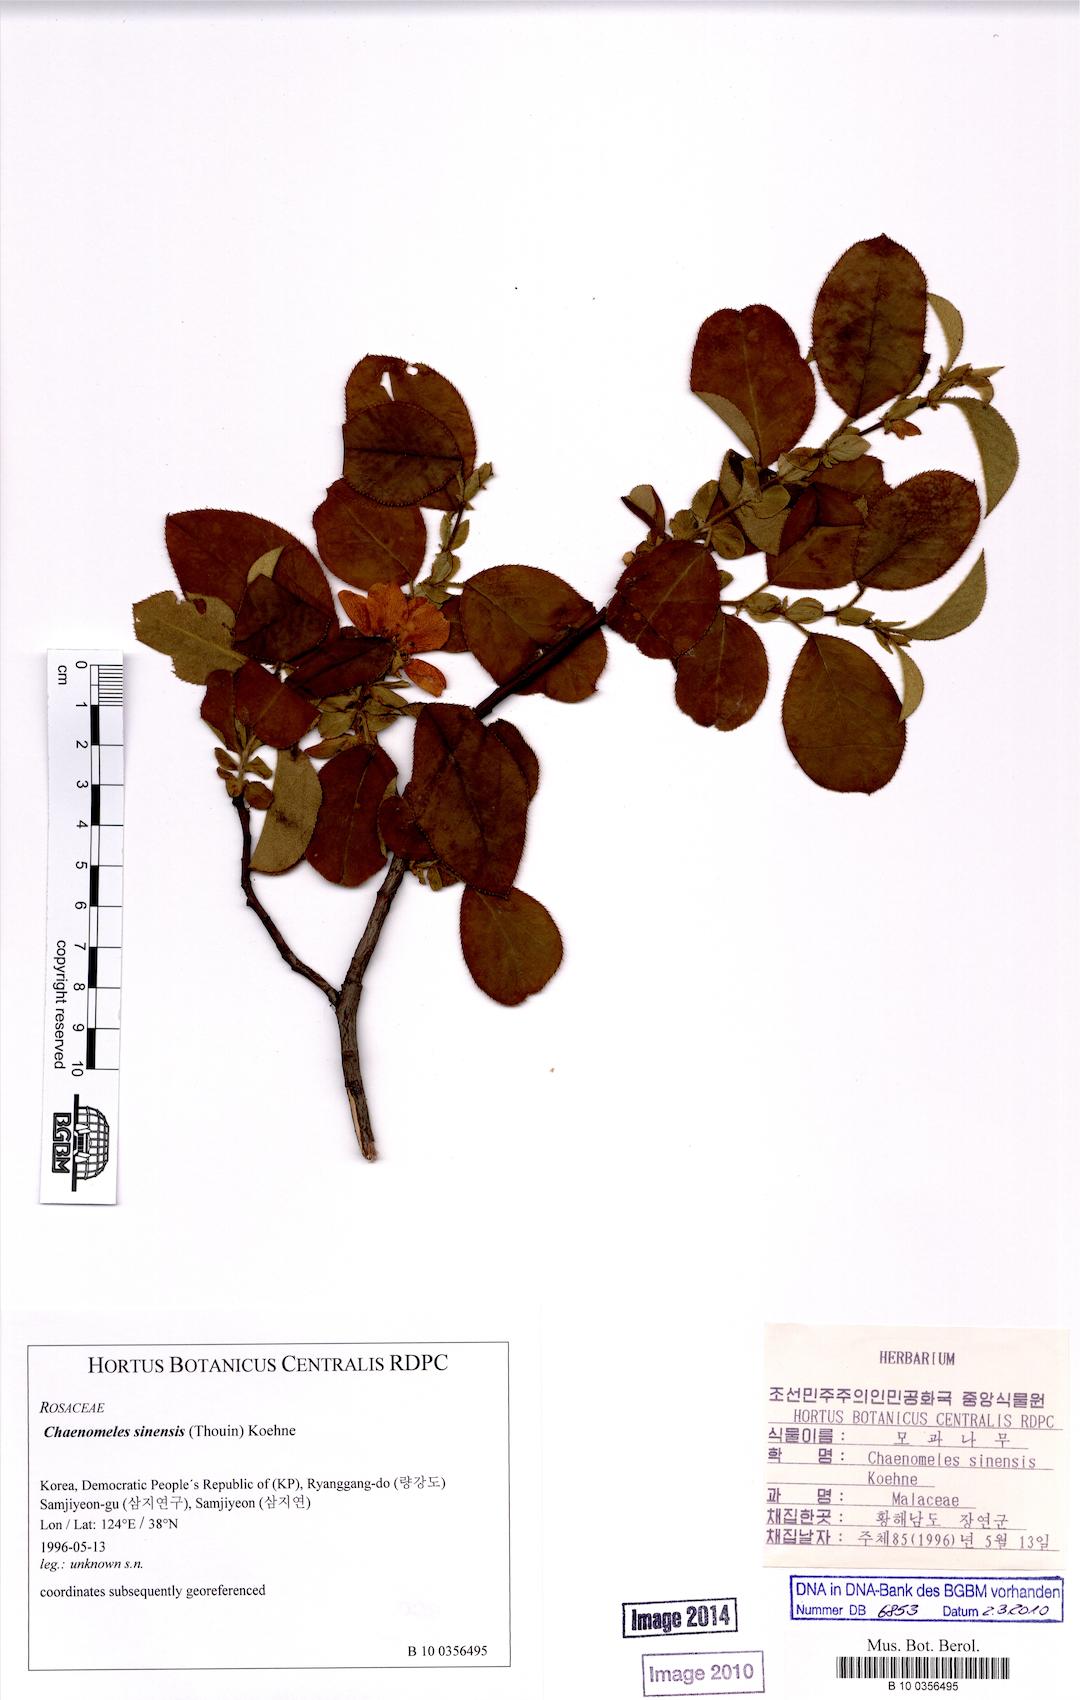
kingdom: Plantae
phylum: Tracheophyta
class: Magnoliopsida
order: Rosales
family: Rosaceae
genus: Pseudocydonia
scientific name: Pseudocydonia sinensis
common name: Chinese-quince
